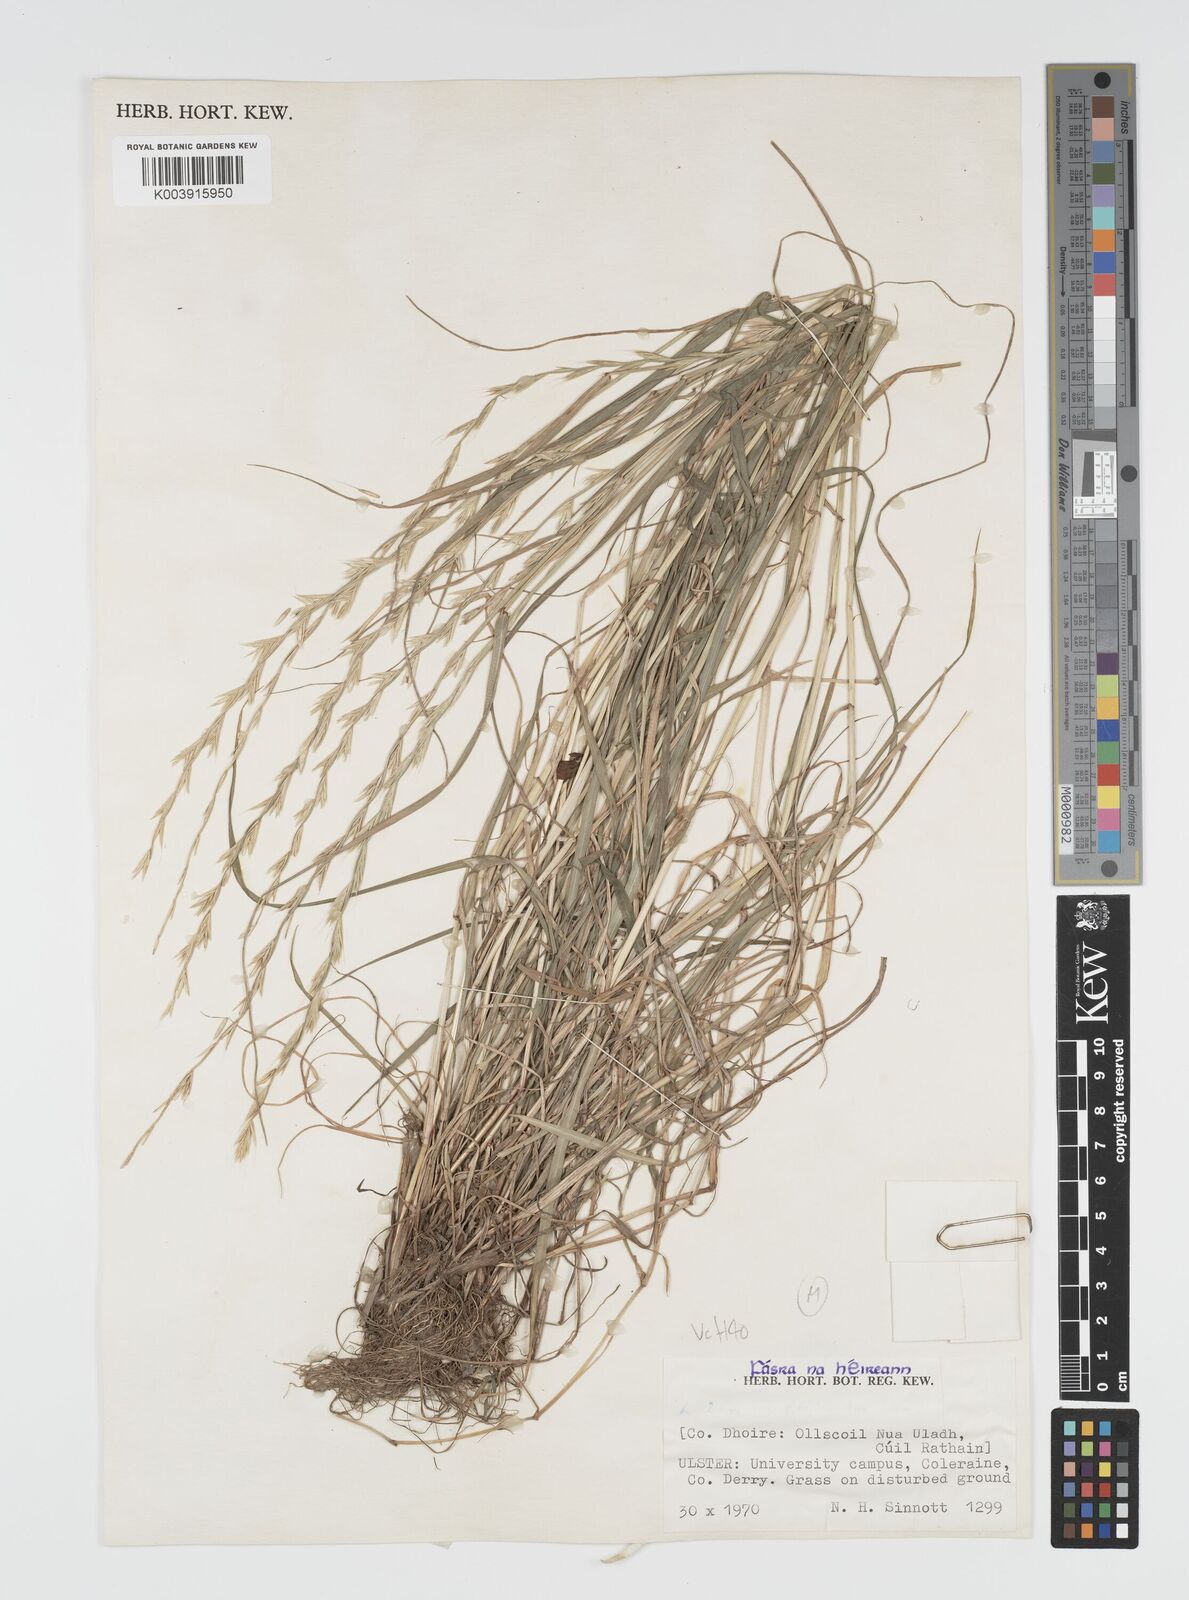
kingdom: Plantae
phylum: Tracheophyta
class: Liliopsida
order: Poales
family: Poaceae
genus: Lolium
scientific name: Lolium multiflorum
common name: Annual ryegrass
